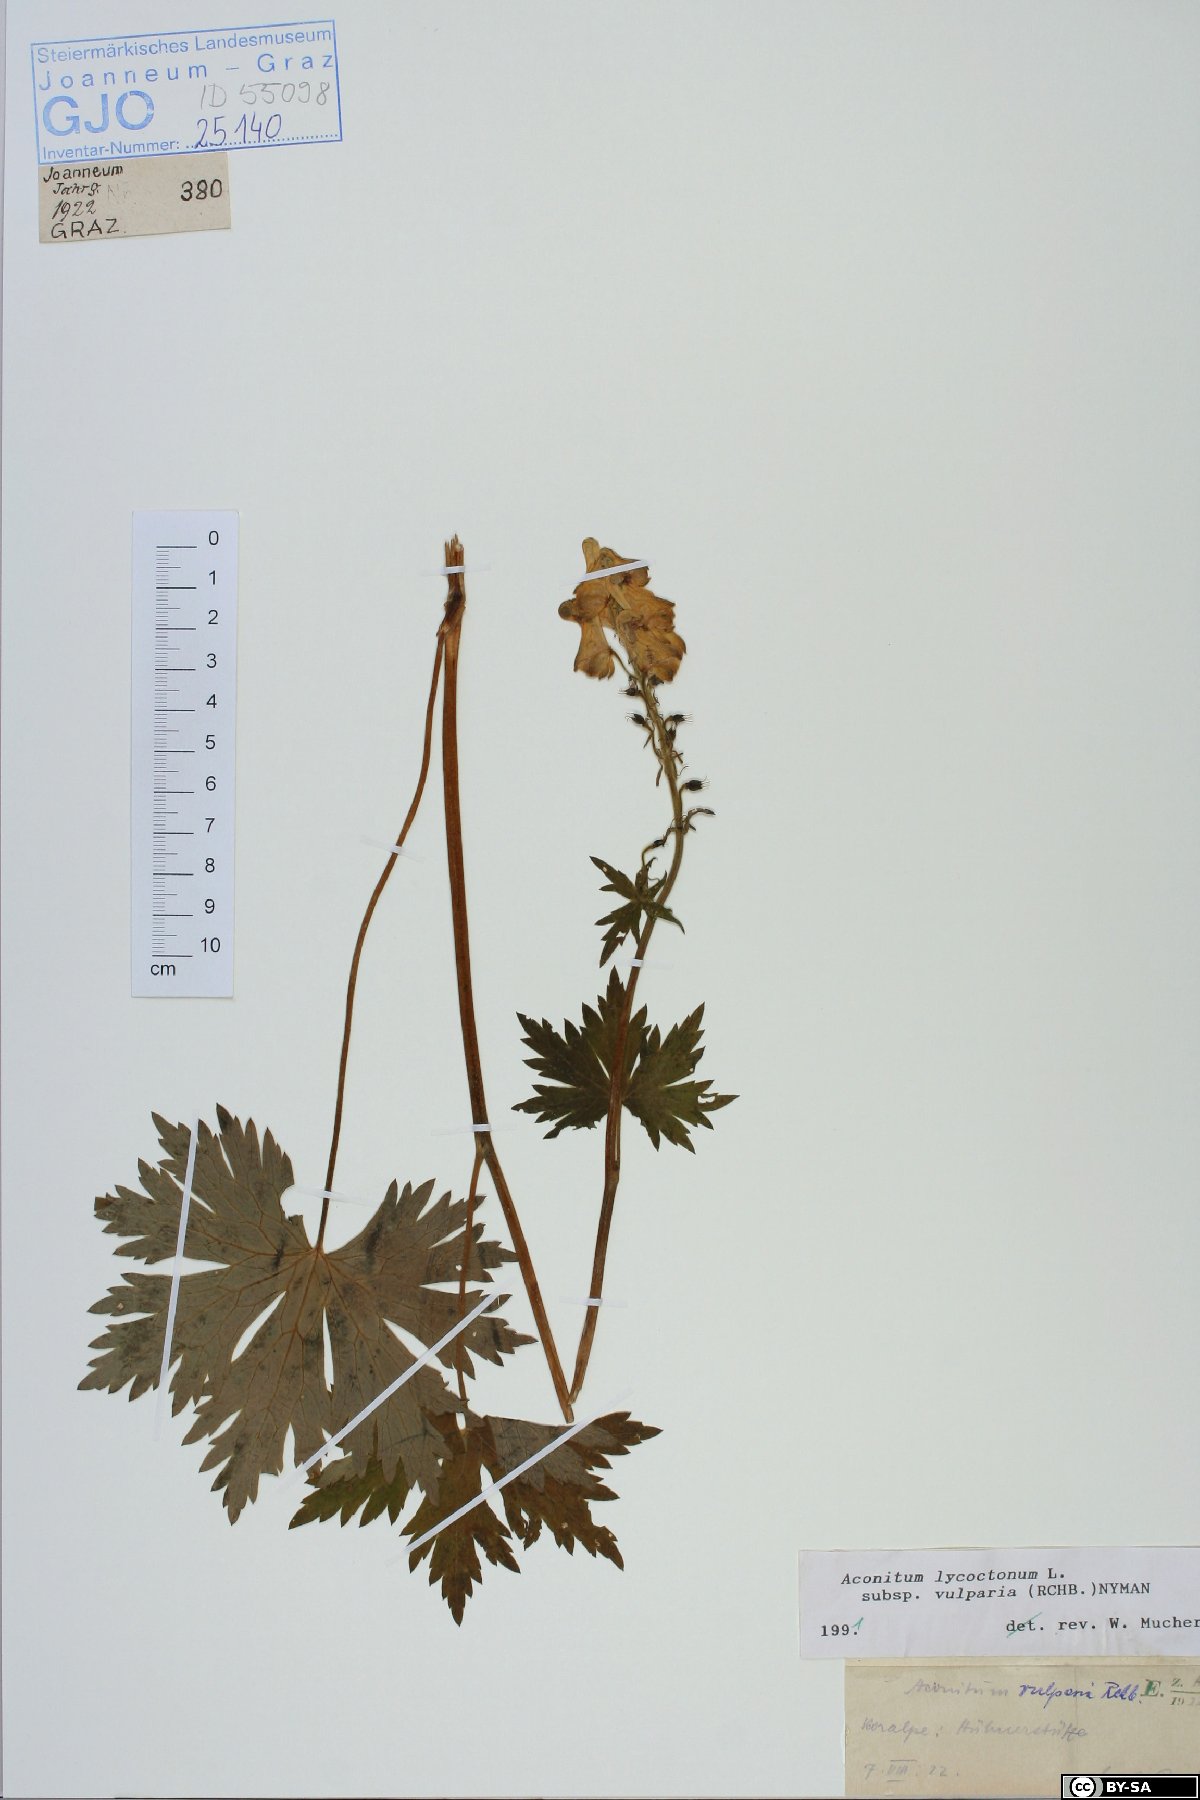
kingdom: Plantae
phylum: Tracheophyta
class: Magnoliopsida
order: Ranunculales
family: Ranunculaceae
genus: Aconitum
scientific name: Aconitum lycoctonum
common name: Wolf's-bane
